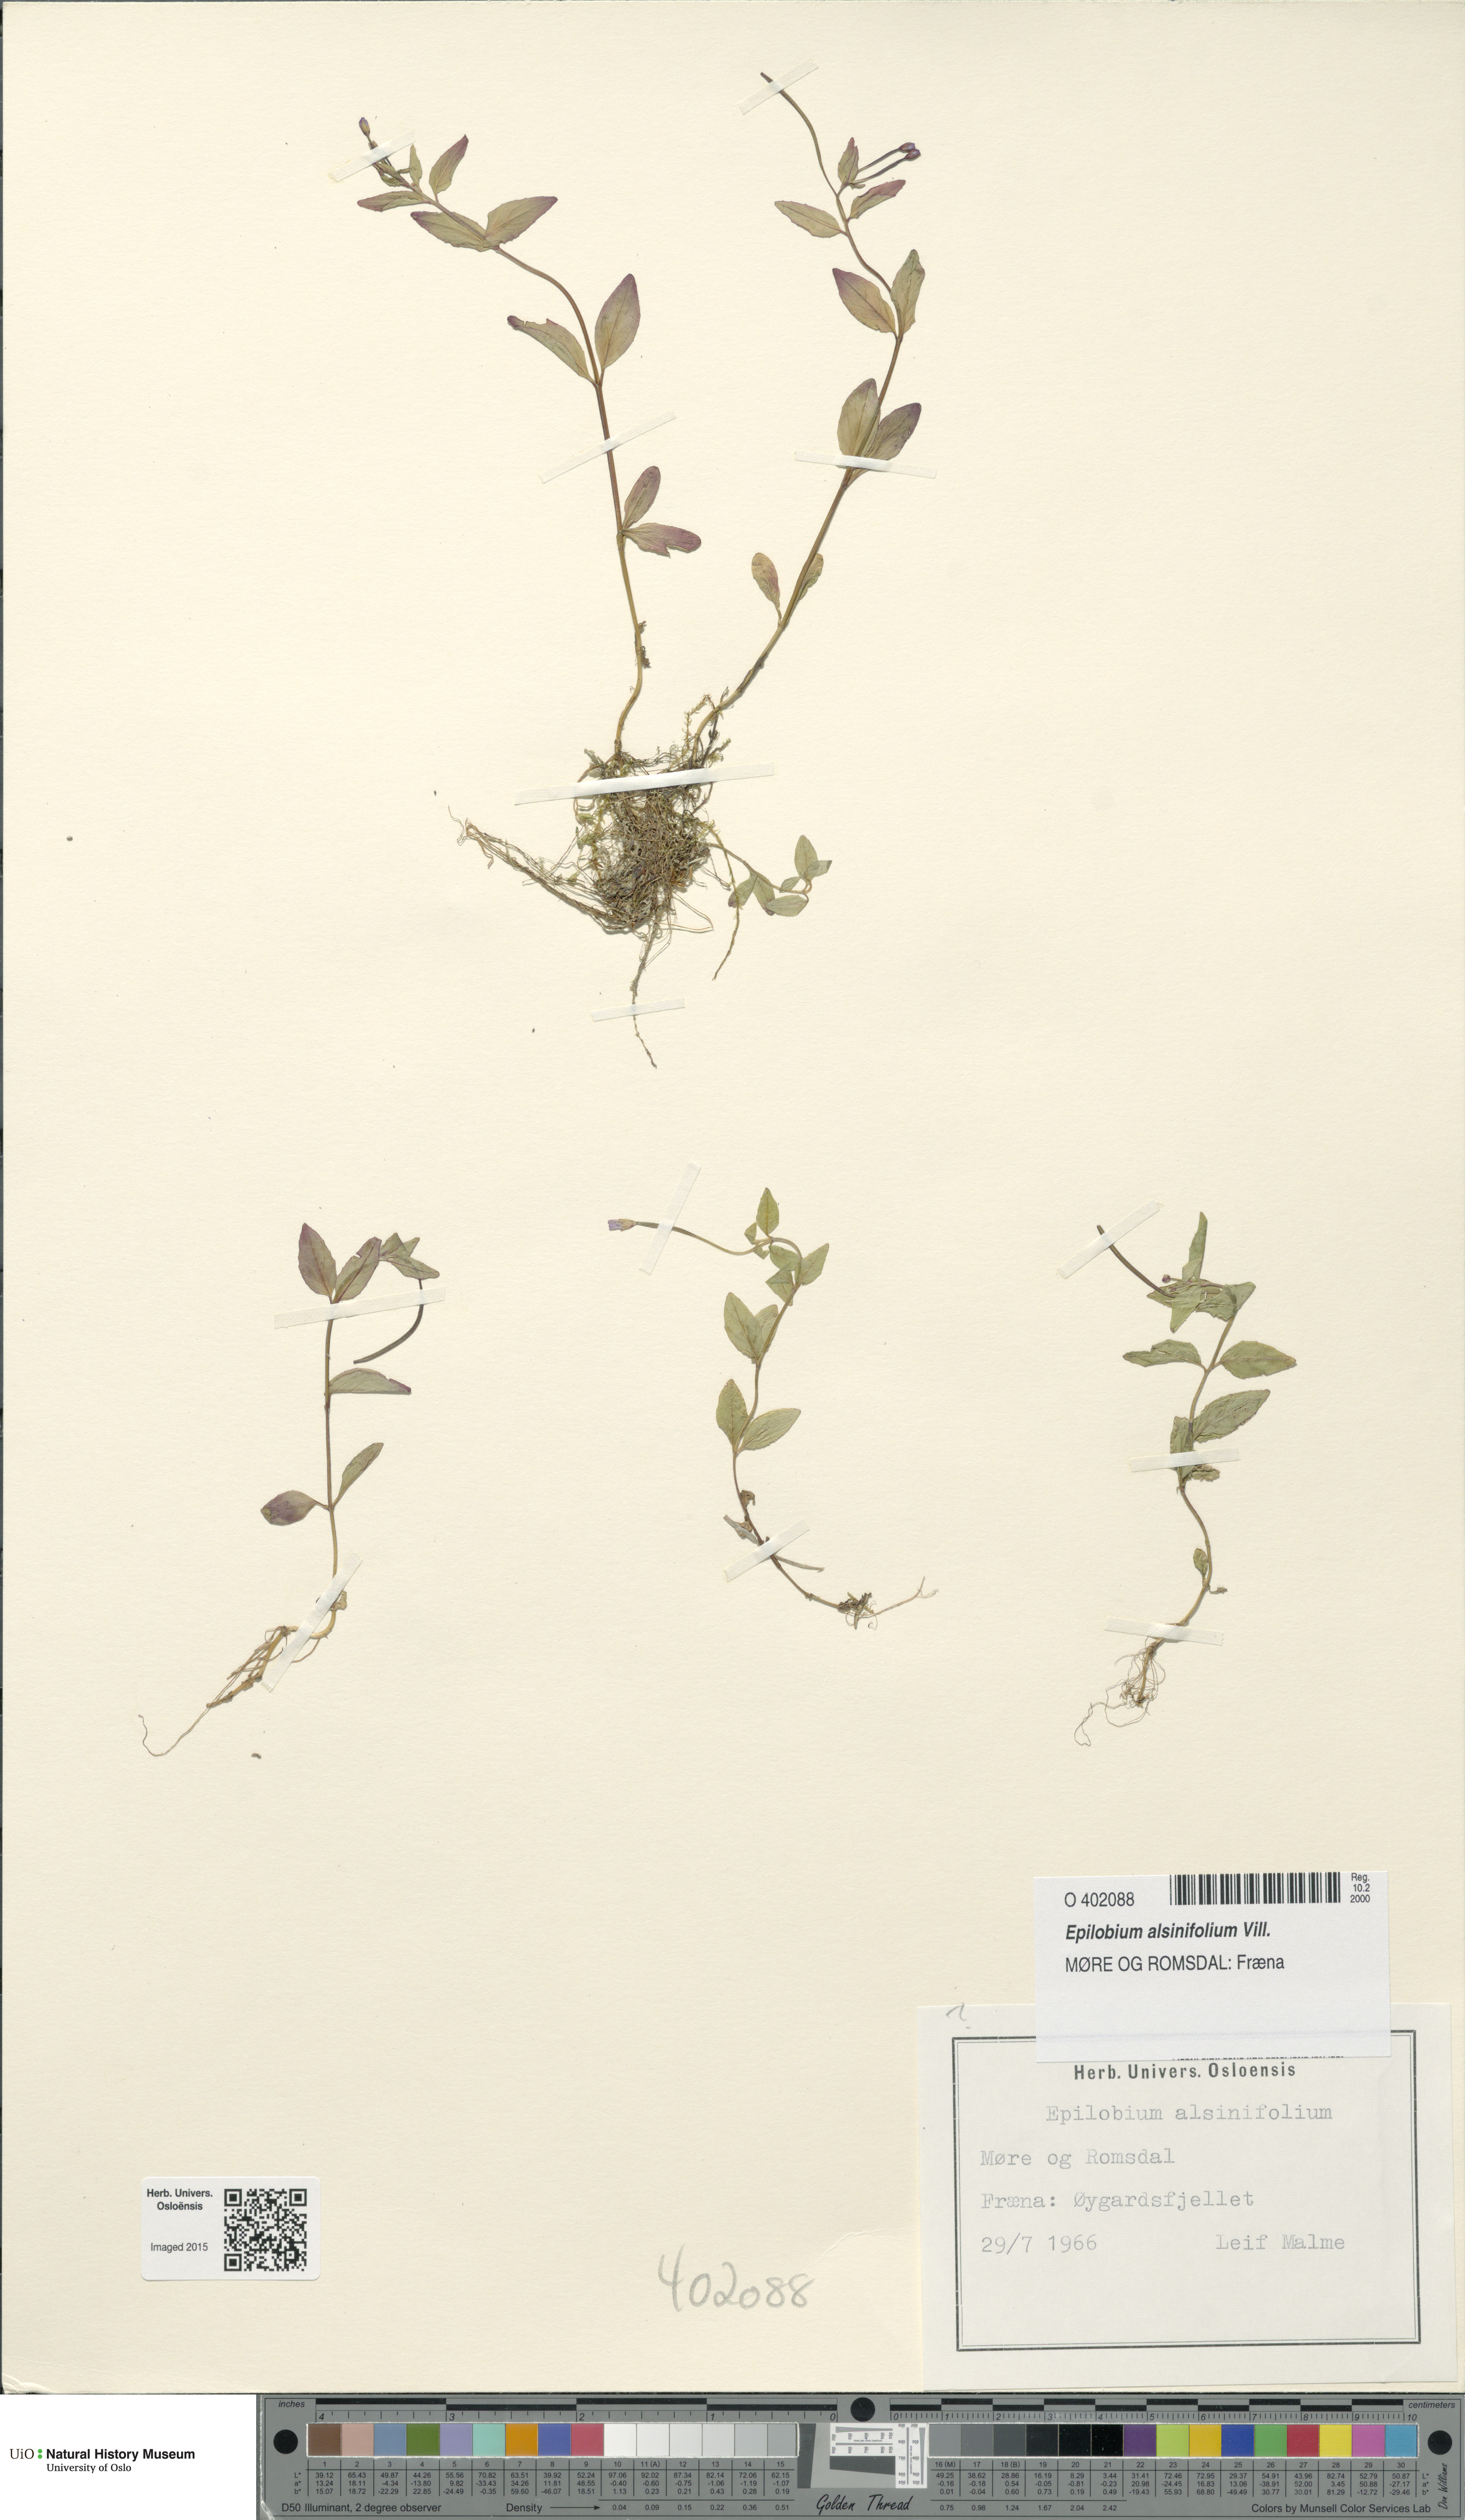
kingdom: Plantae
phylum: Tracheophyta
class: Magnoliopsida
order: Myrtales
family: Onagraceae
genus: Epilobium
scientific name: Epilobium alsinifolium
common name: Chickweed willowherb
